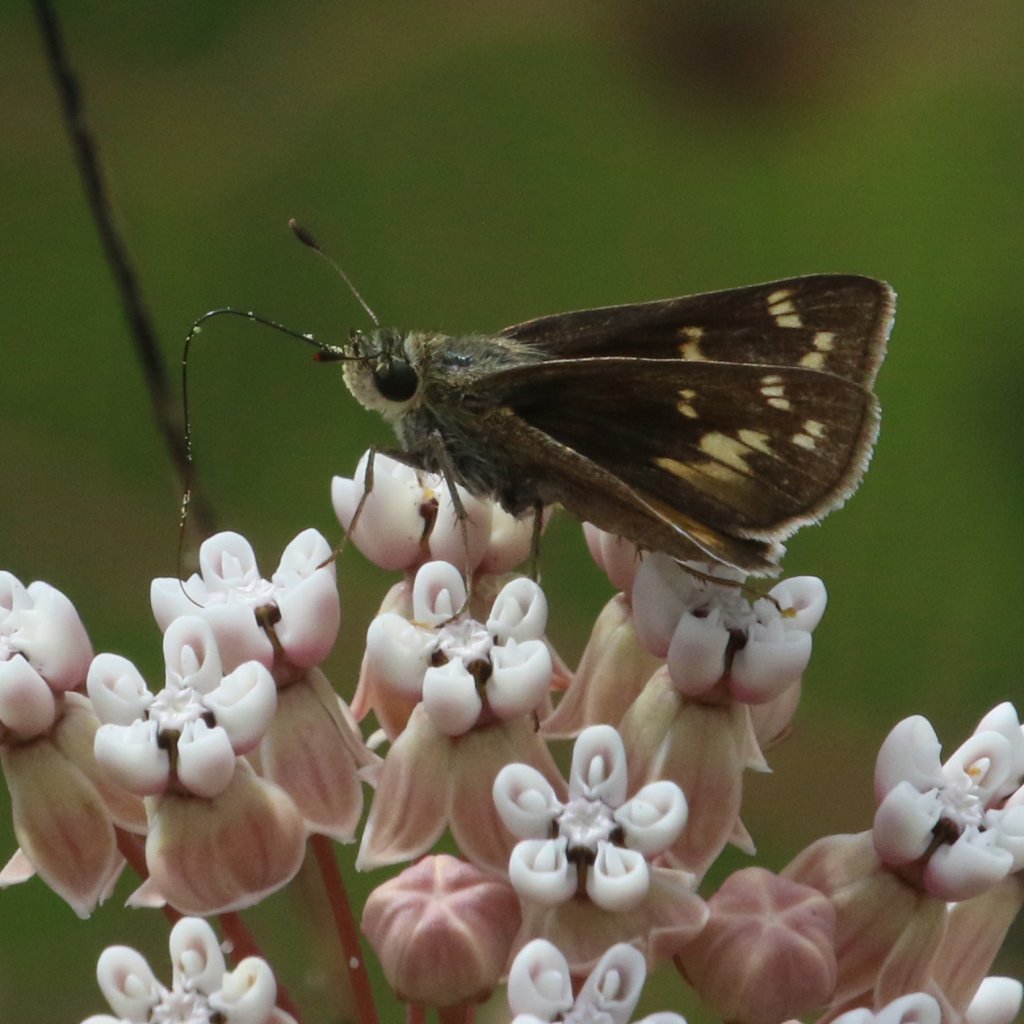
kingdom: Animalia
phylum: Arthropoda
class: Insecta
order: Lepidoptera
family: Hesperiidae
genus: Hesperia
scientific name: Hesperia attalus
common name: Dotted Skipper
